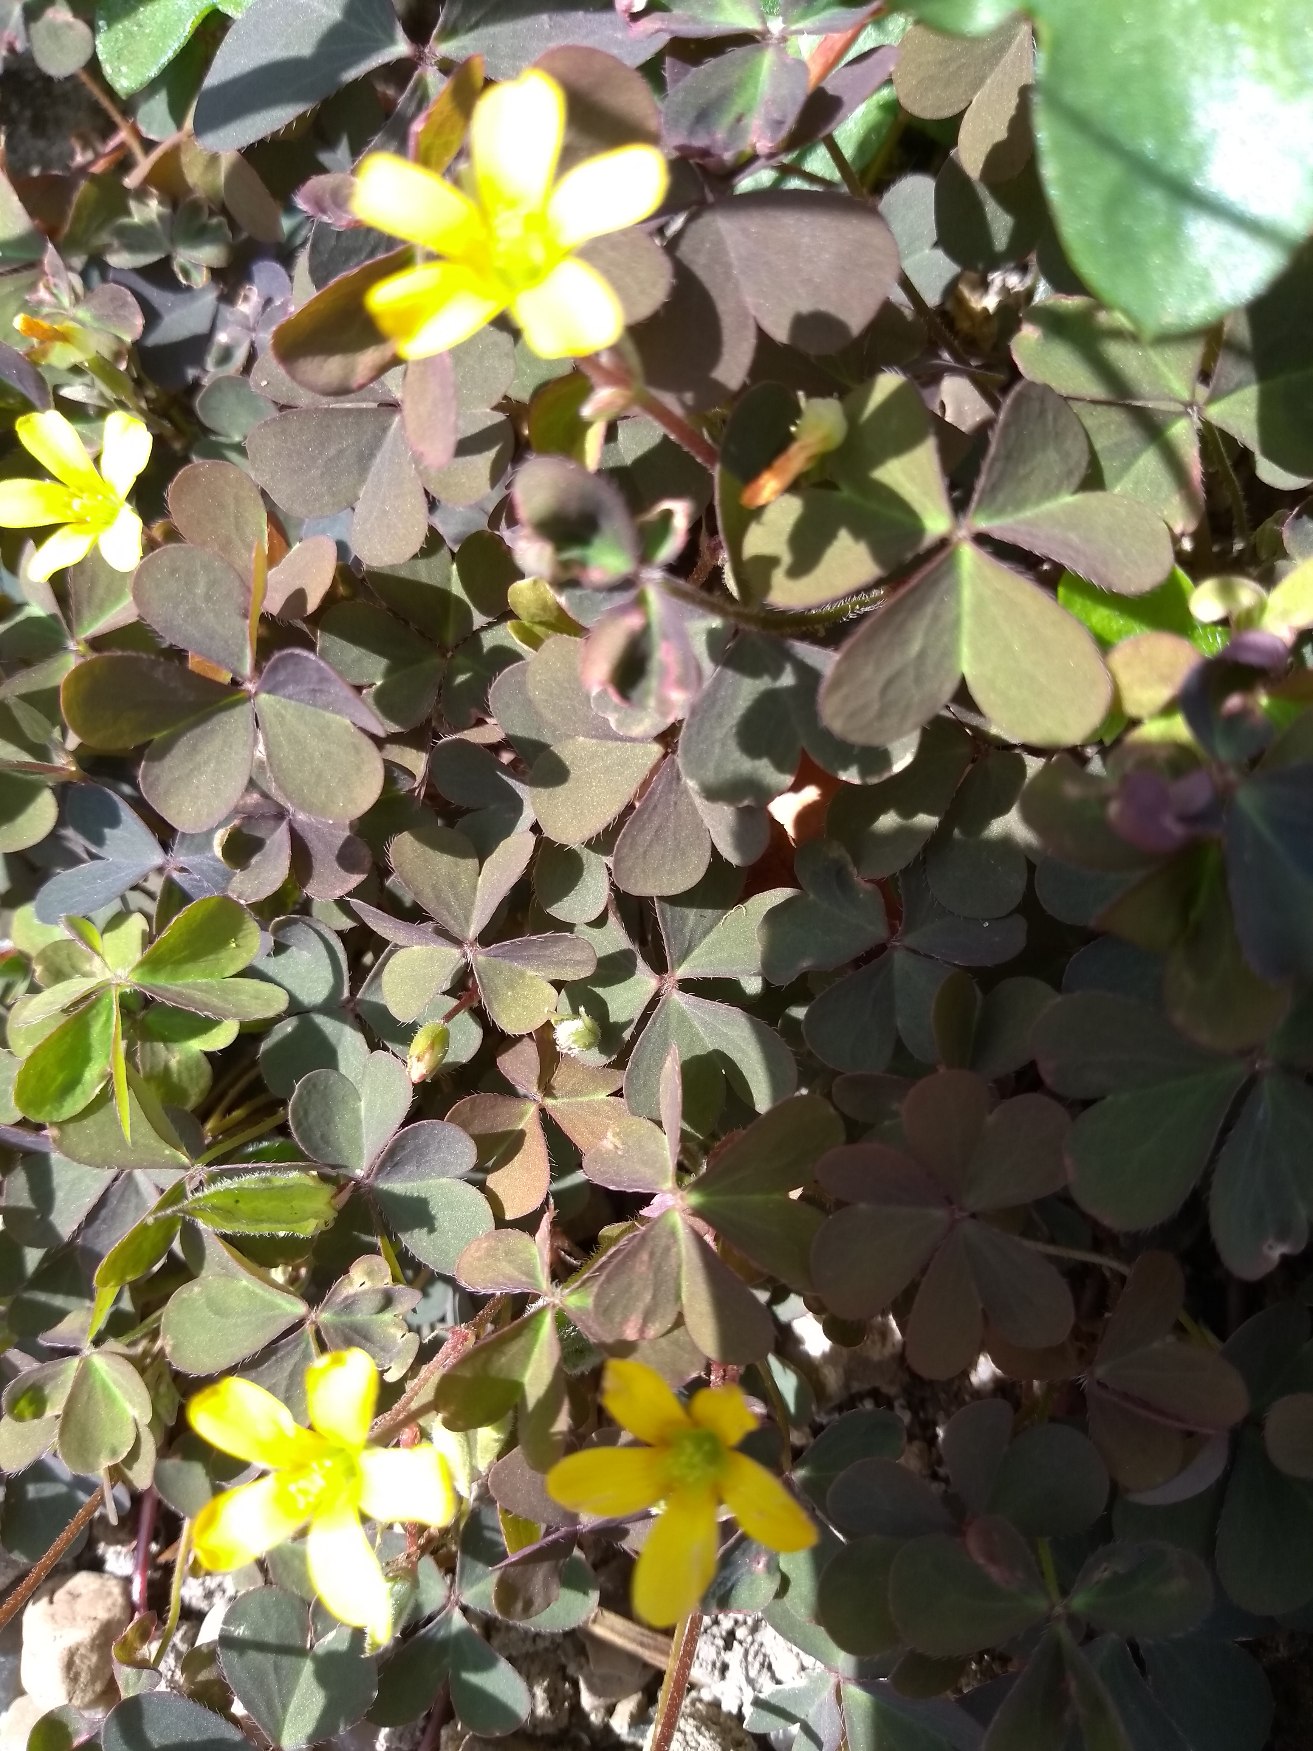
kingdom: Plantae
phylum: Tracheophyta
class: Magnoliopsida
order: Oxalidales
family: Oxalidaceae
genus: Oxalis
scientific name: Oxalis corniculata
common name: Nedliggende surkløver
